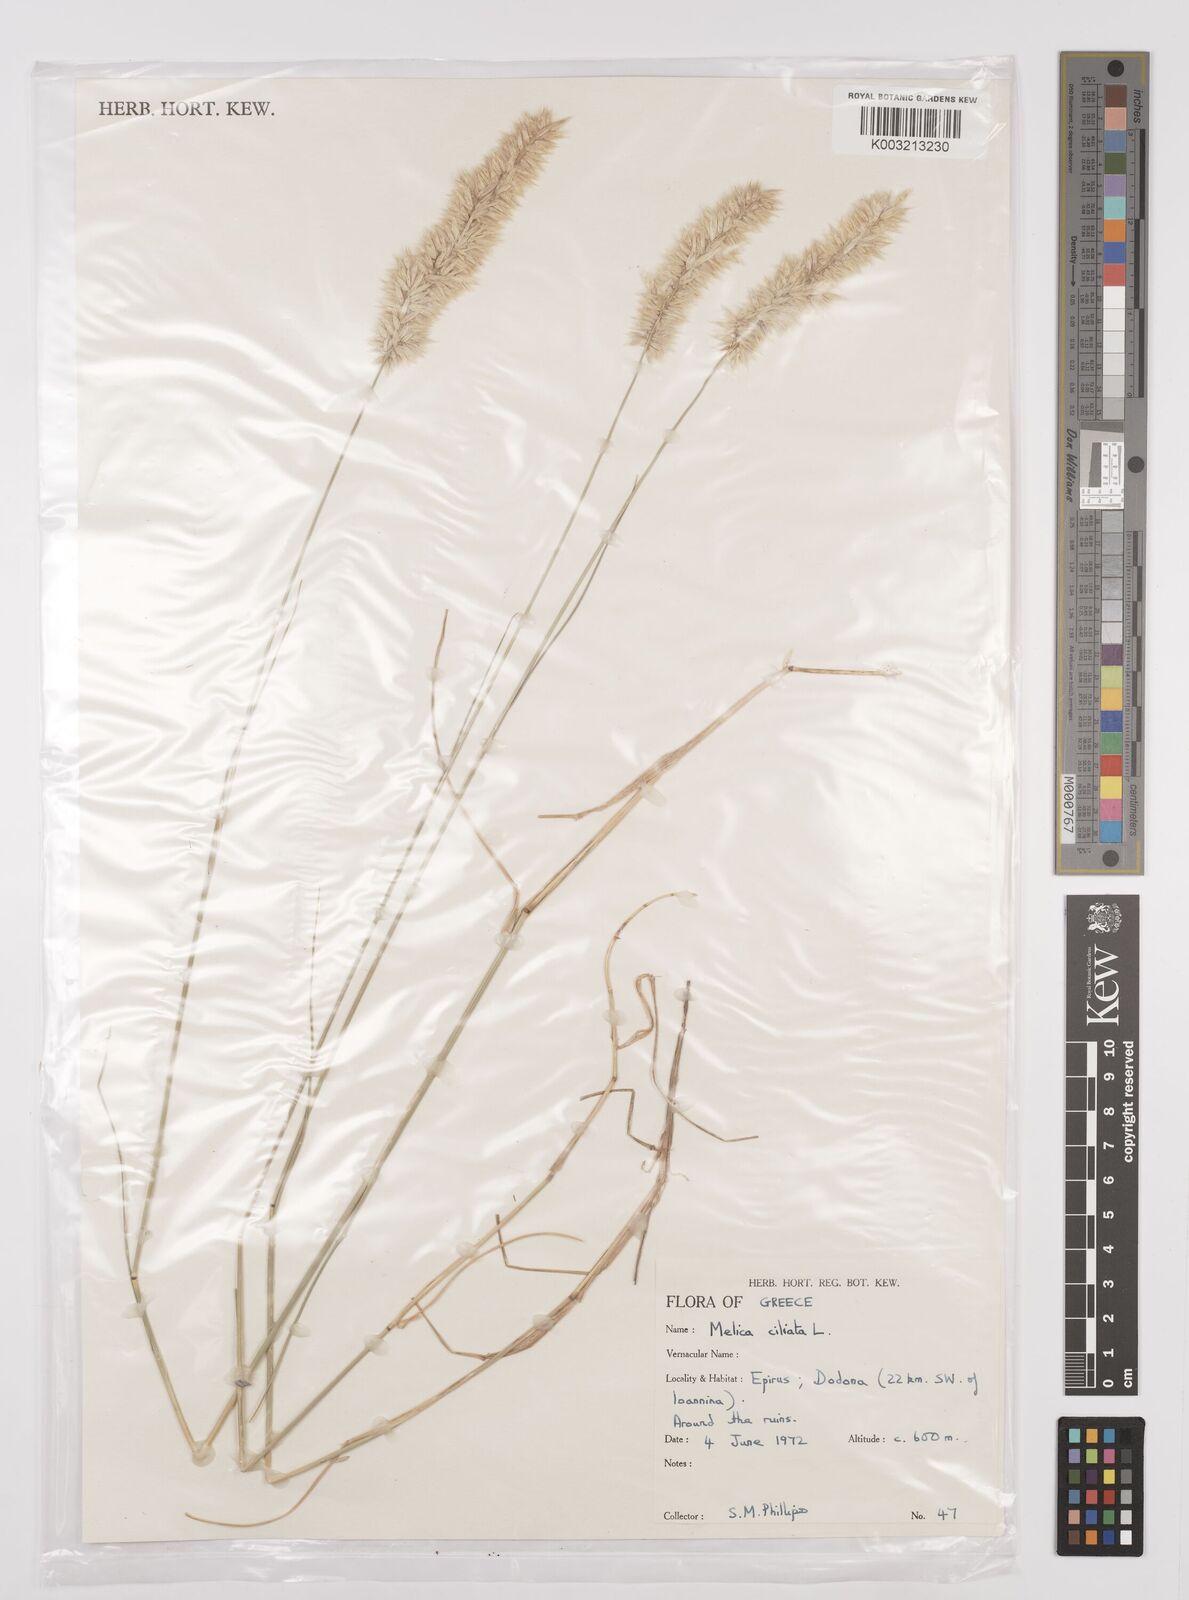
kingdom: Plantae
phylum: Tracheophyta
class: Liliopsida
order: Poales
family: Poaceae
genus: Melica
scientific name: Melica ciliata
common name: Hairy melicgrass
